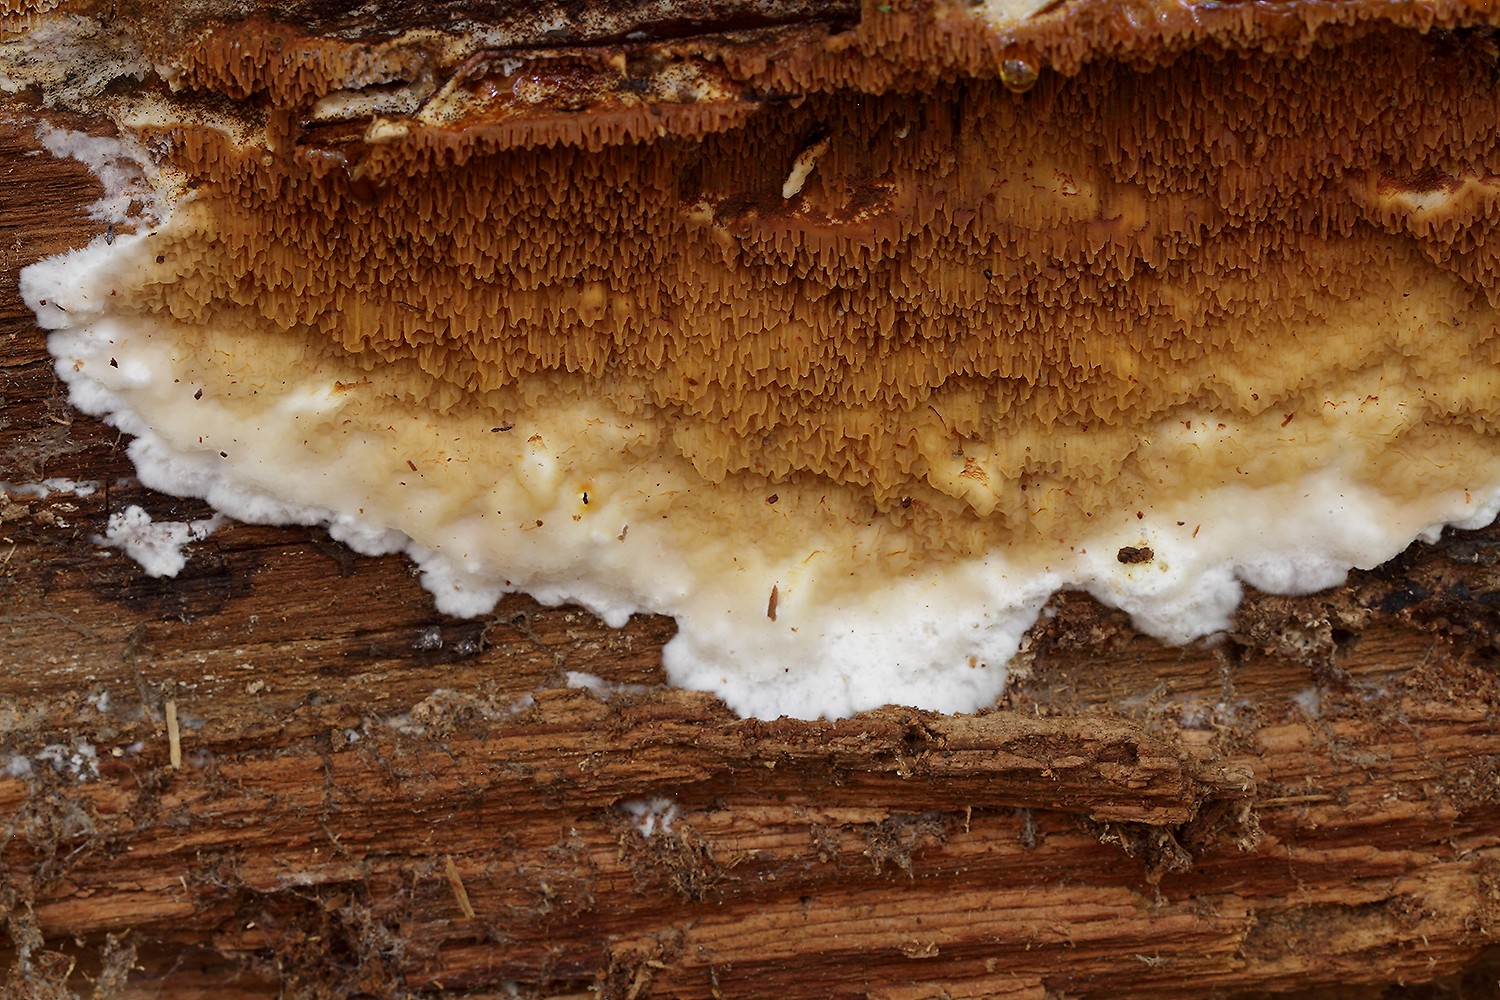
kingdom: Fungi
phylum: Basidiomycota
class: Agaricomycetes
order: Boletales
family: Serpulaceae
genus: Serpula
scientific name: Serpula lacrymans
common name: ægte hussvamp
